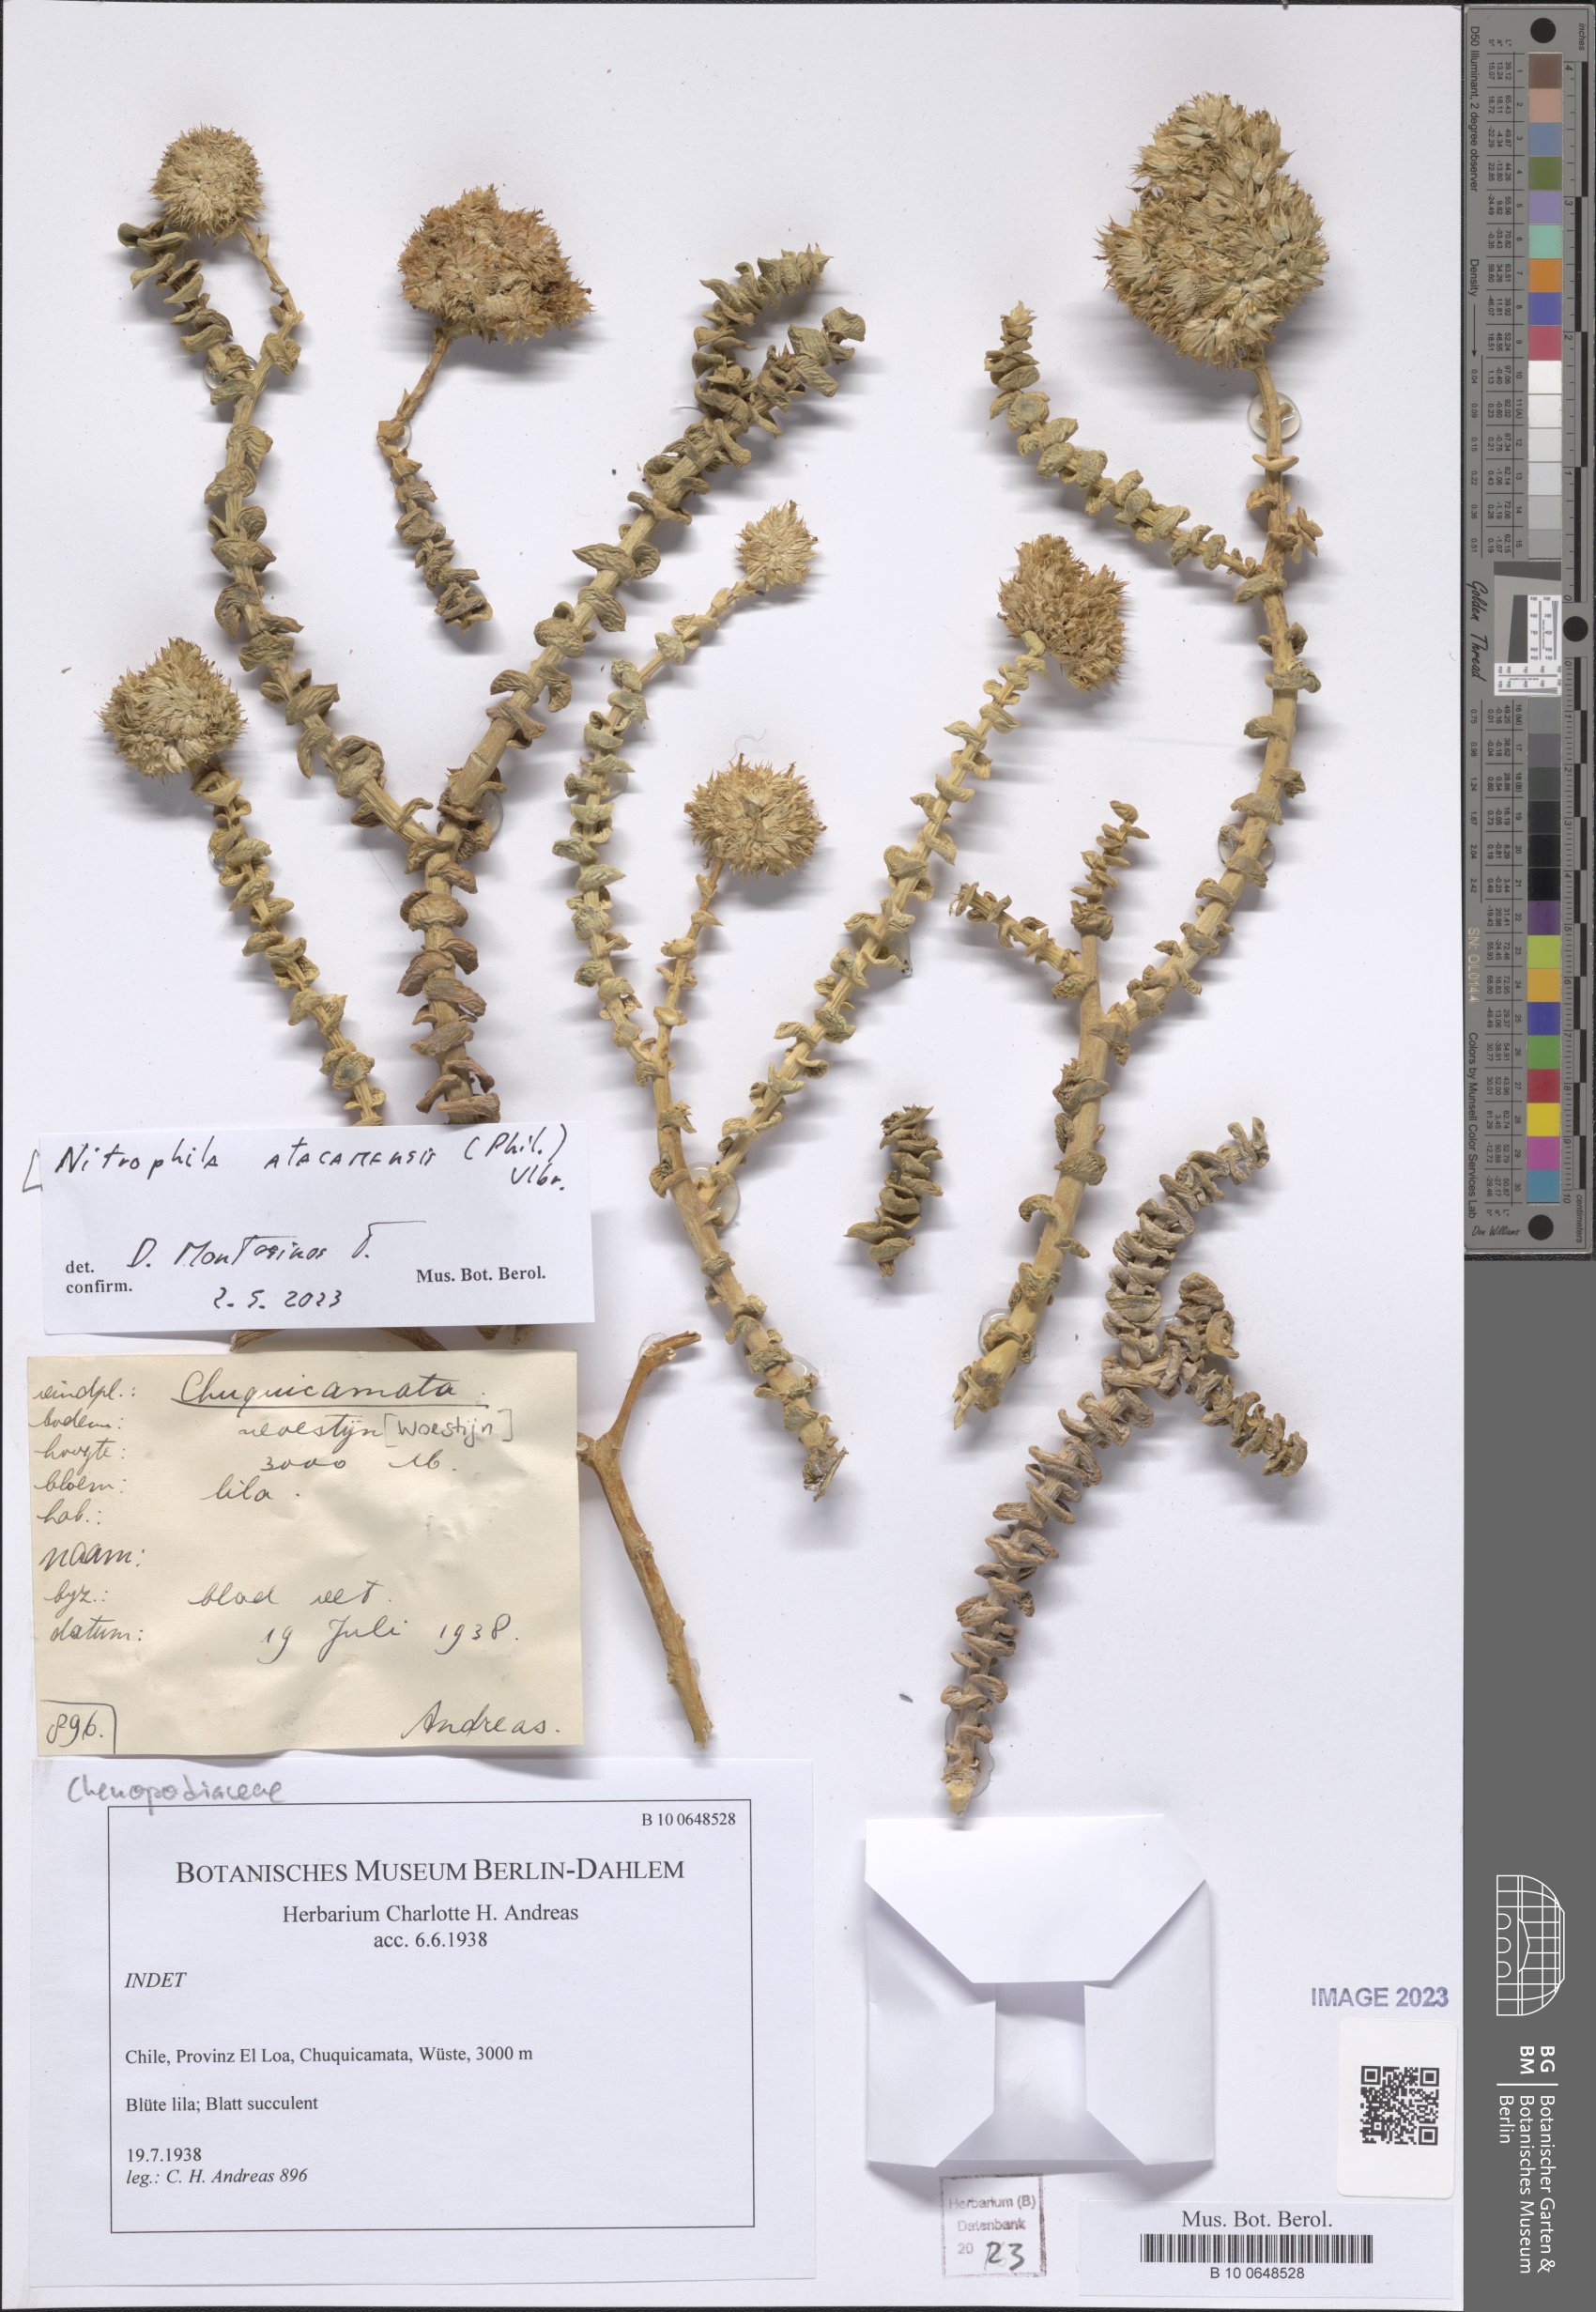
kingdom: Plantae
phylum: Tracheophyta
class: Magnoliopsida
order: Caryophyllales
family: Amaranthaceae
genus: Nitrophila
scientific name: Nitrophila atacamensis
